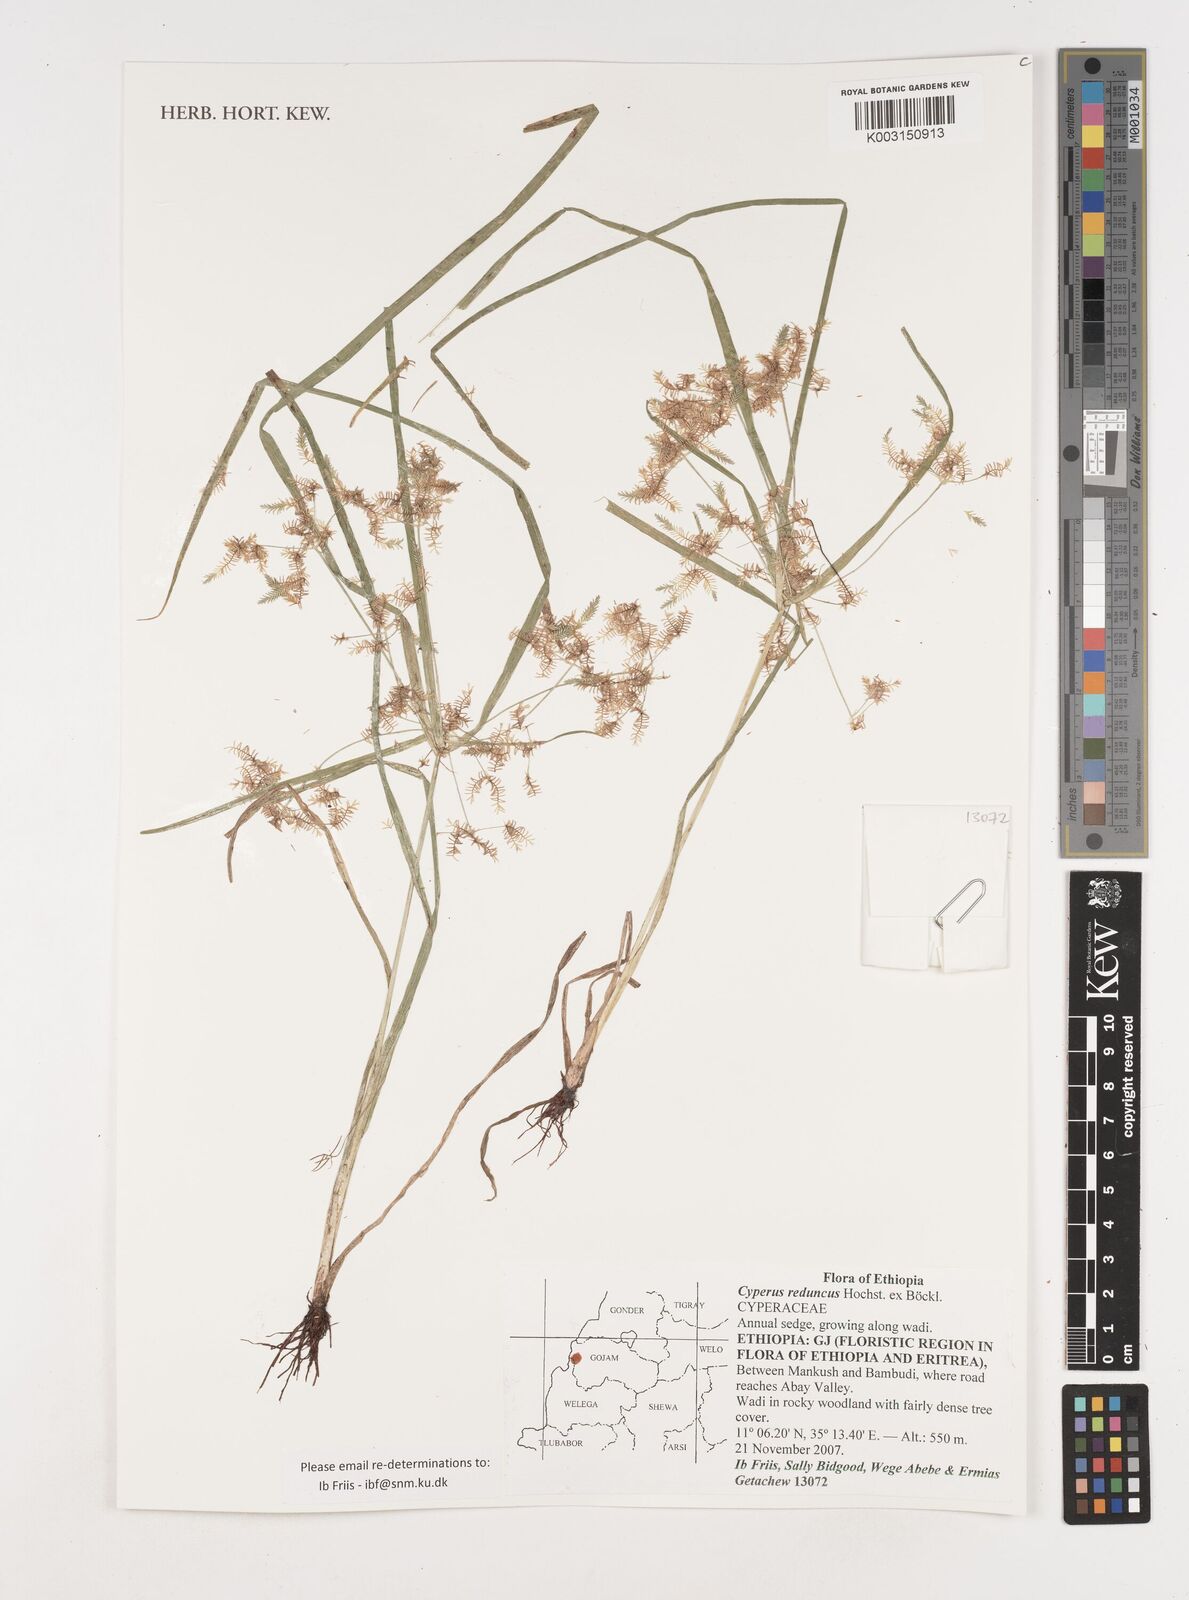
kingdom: Plantae
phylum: Tracheophyta
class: Liliopsida
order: Poales
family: Cyperaceae
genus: Cyperus
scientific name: Cyperus reduncus
